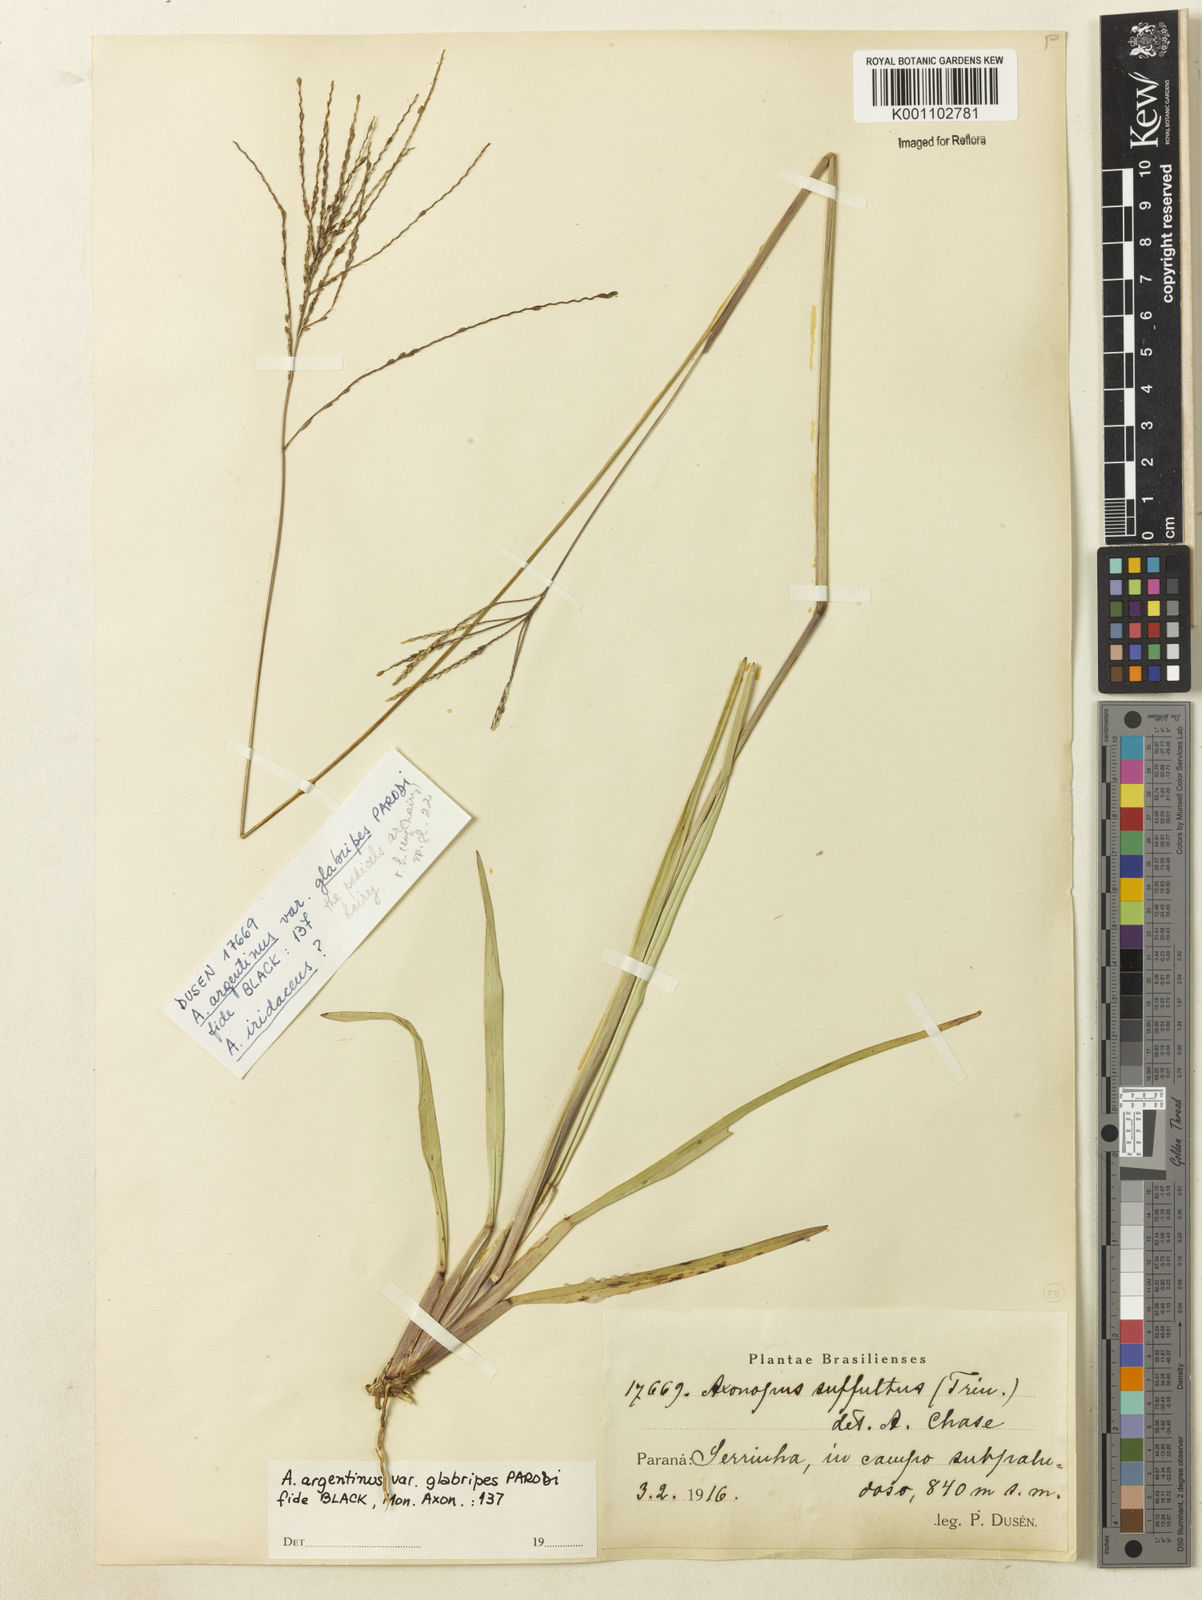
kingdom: Plantae
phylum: Tracheophyta
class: Liliopsida
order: Poales
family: Poaceae
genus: Axonopus
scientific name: Axonopus argentinus
